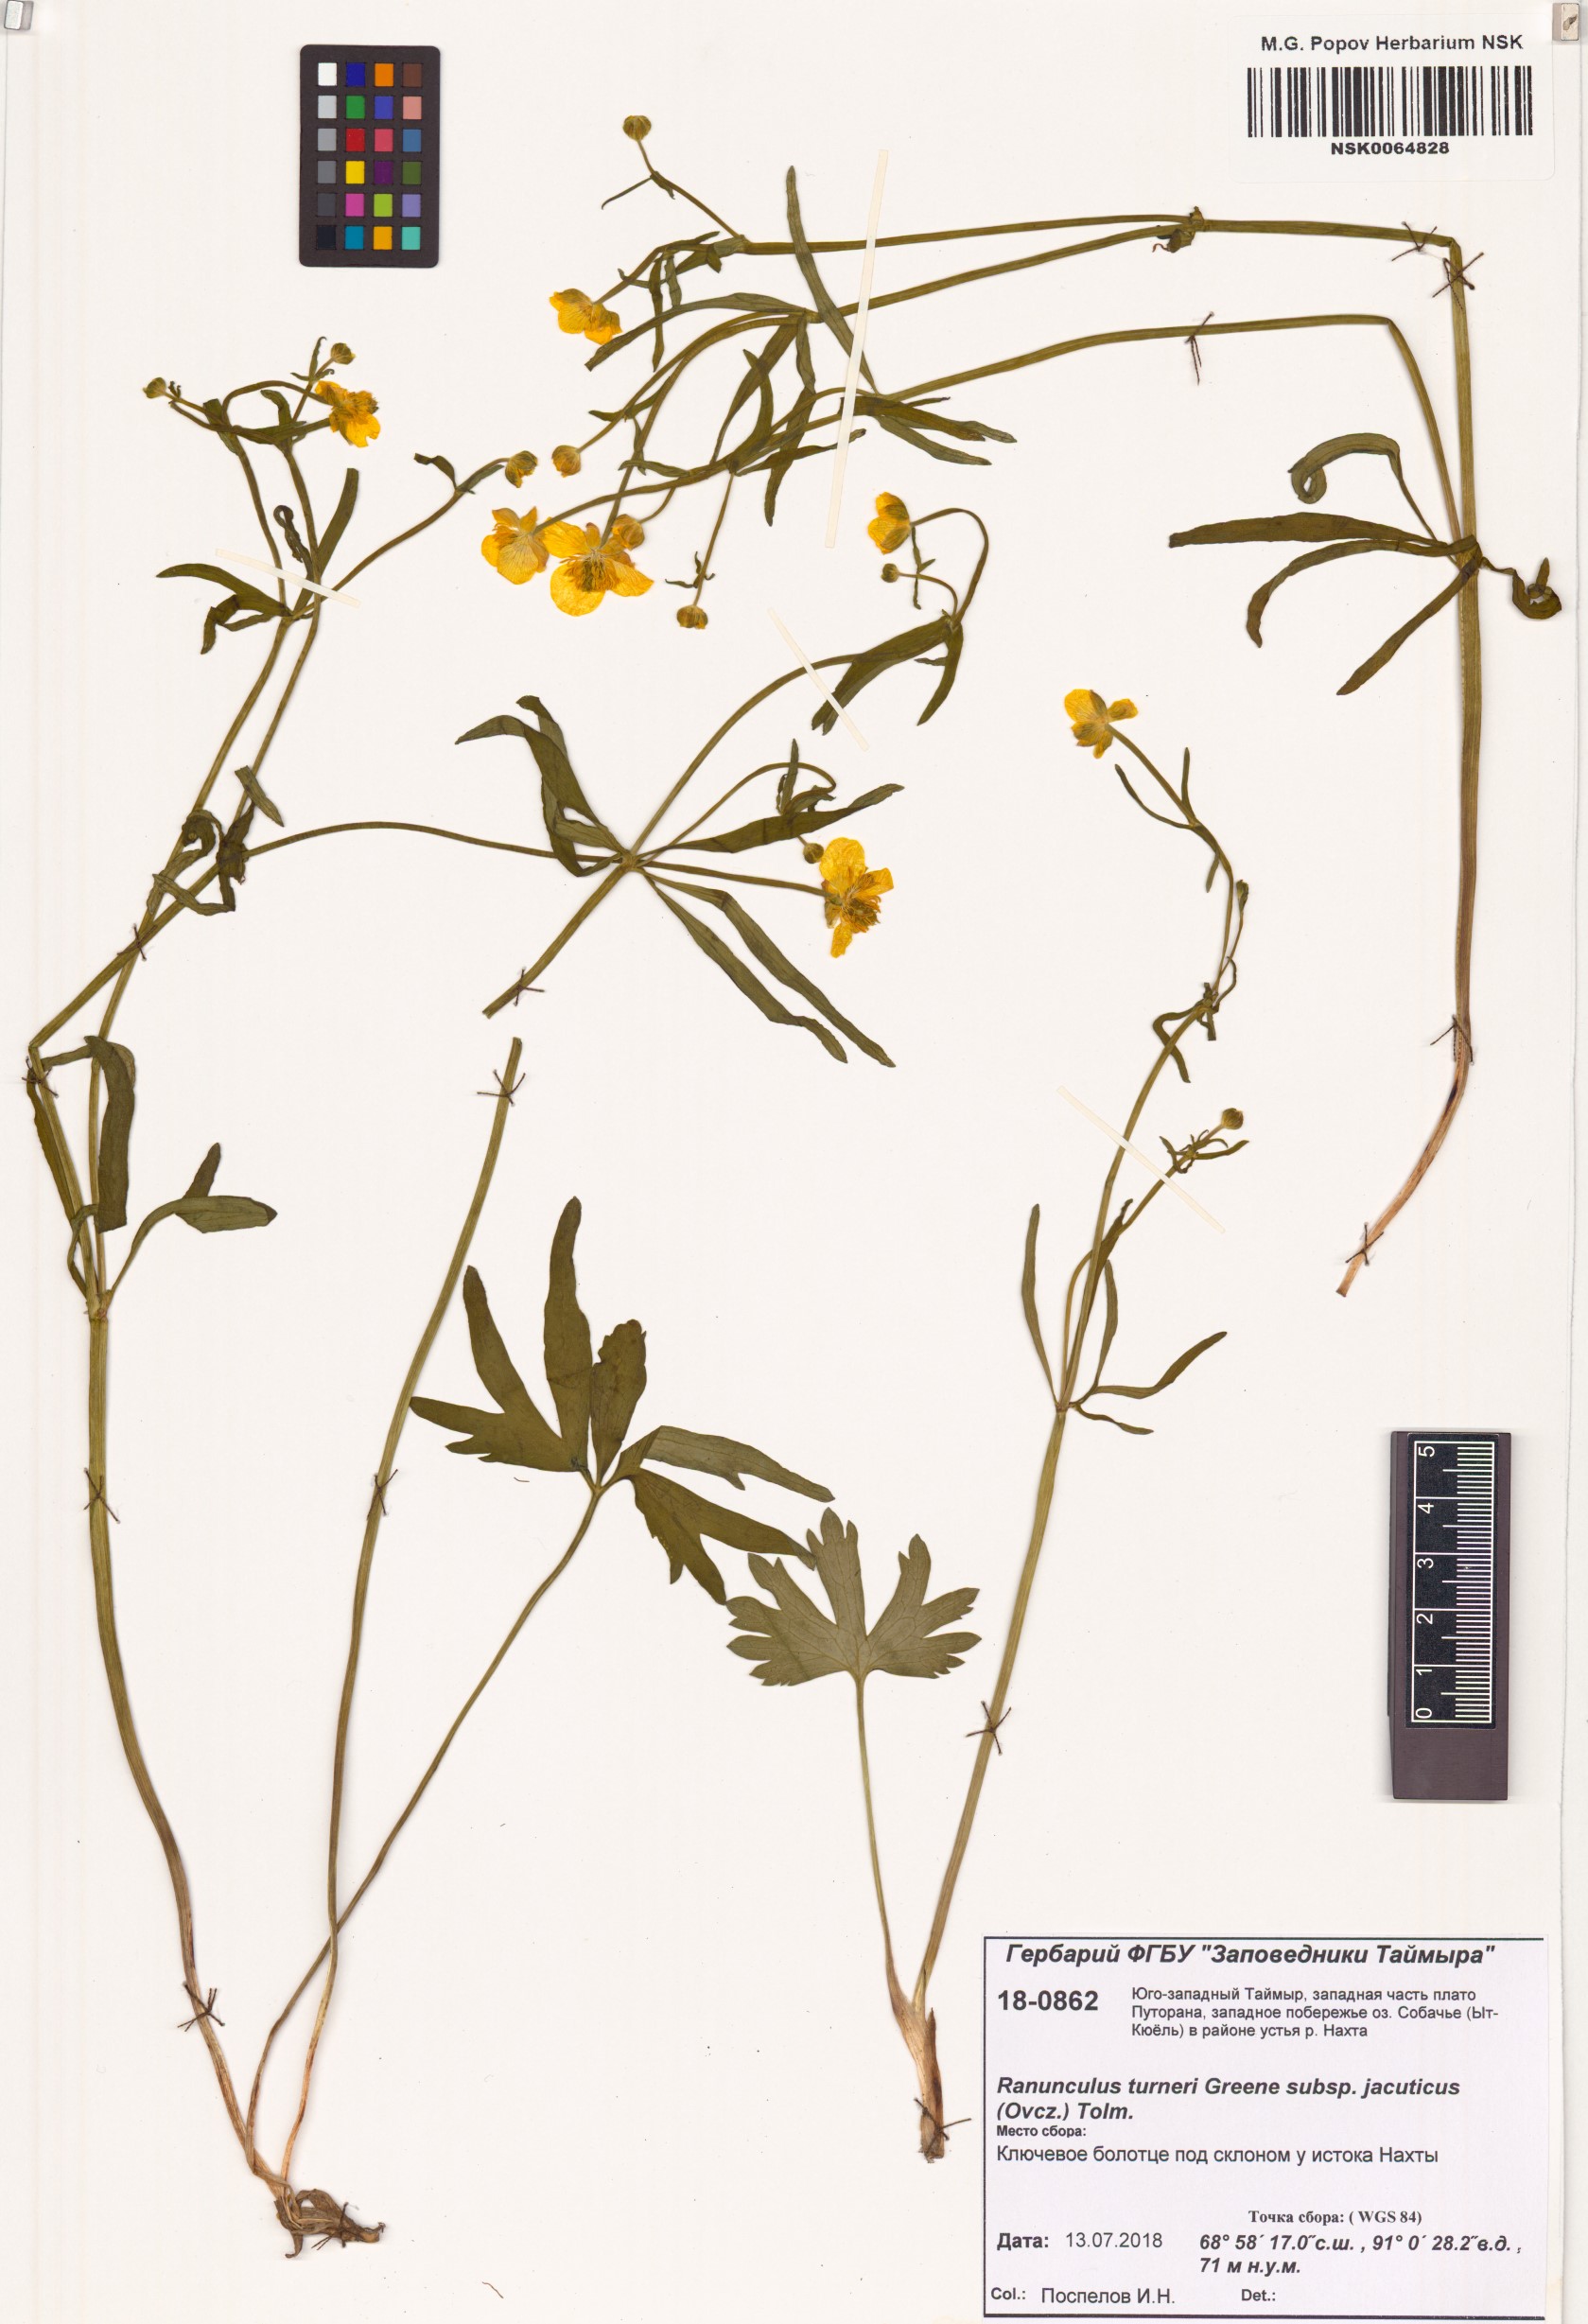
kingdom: Plantae
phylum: Tracheophyta
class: Magnoliopsida
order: Ranunculales
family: Ranunculaceae
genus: Ranunculus
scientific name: Ranunculus turneri
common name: Turner's buttercup
